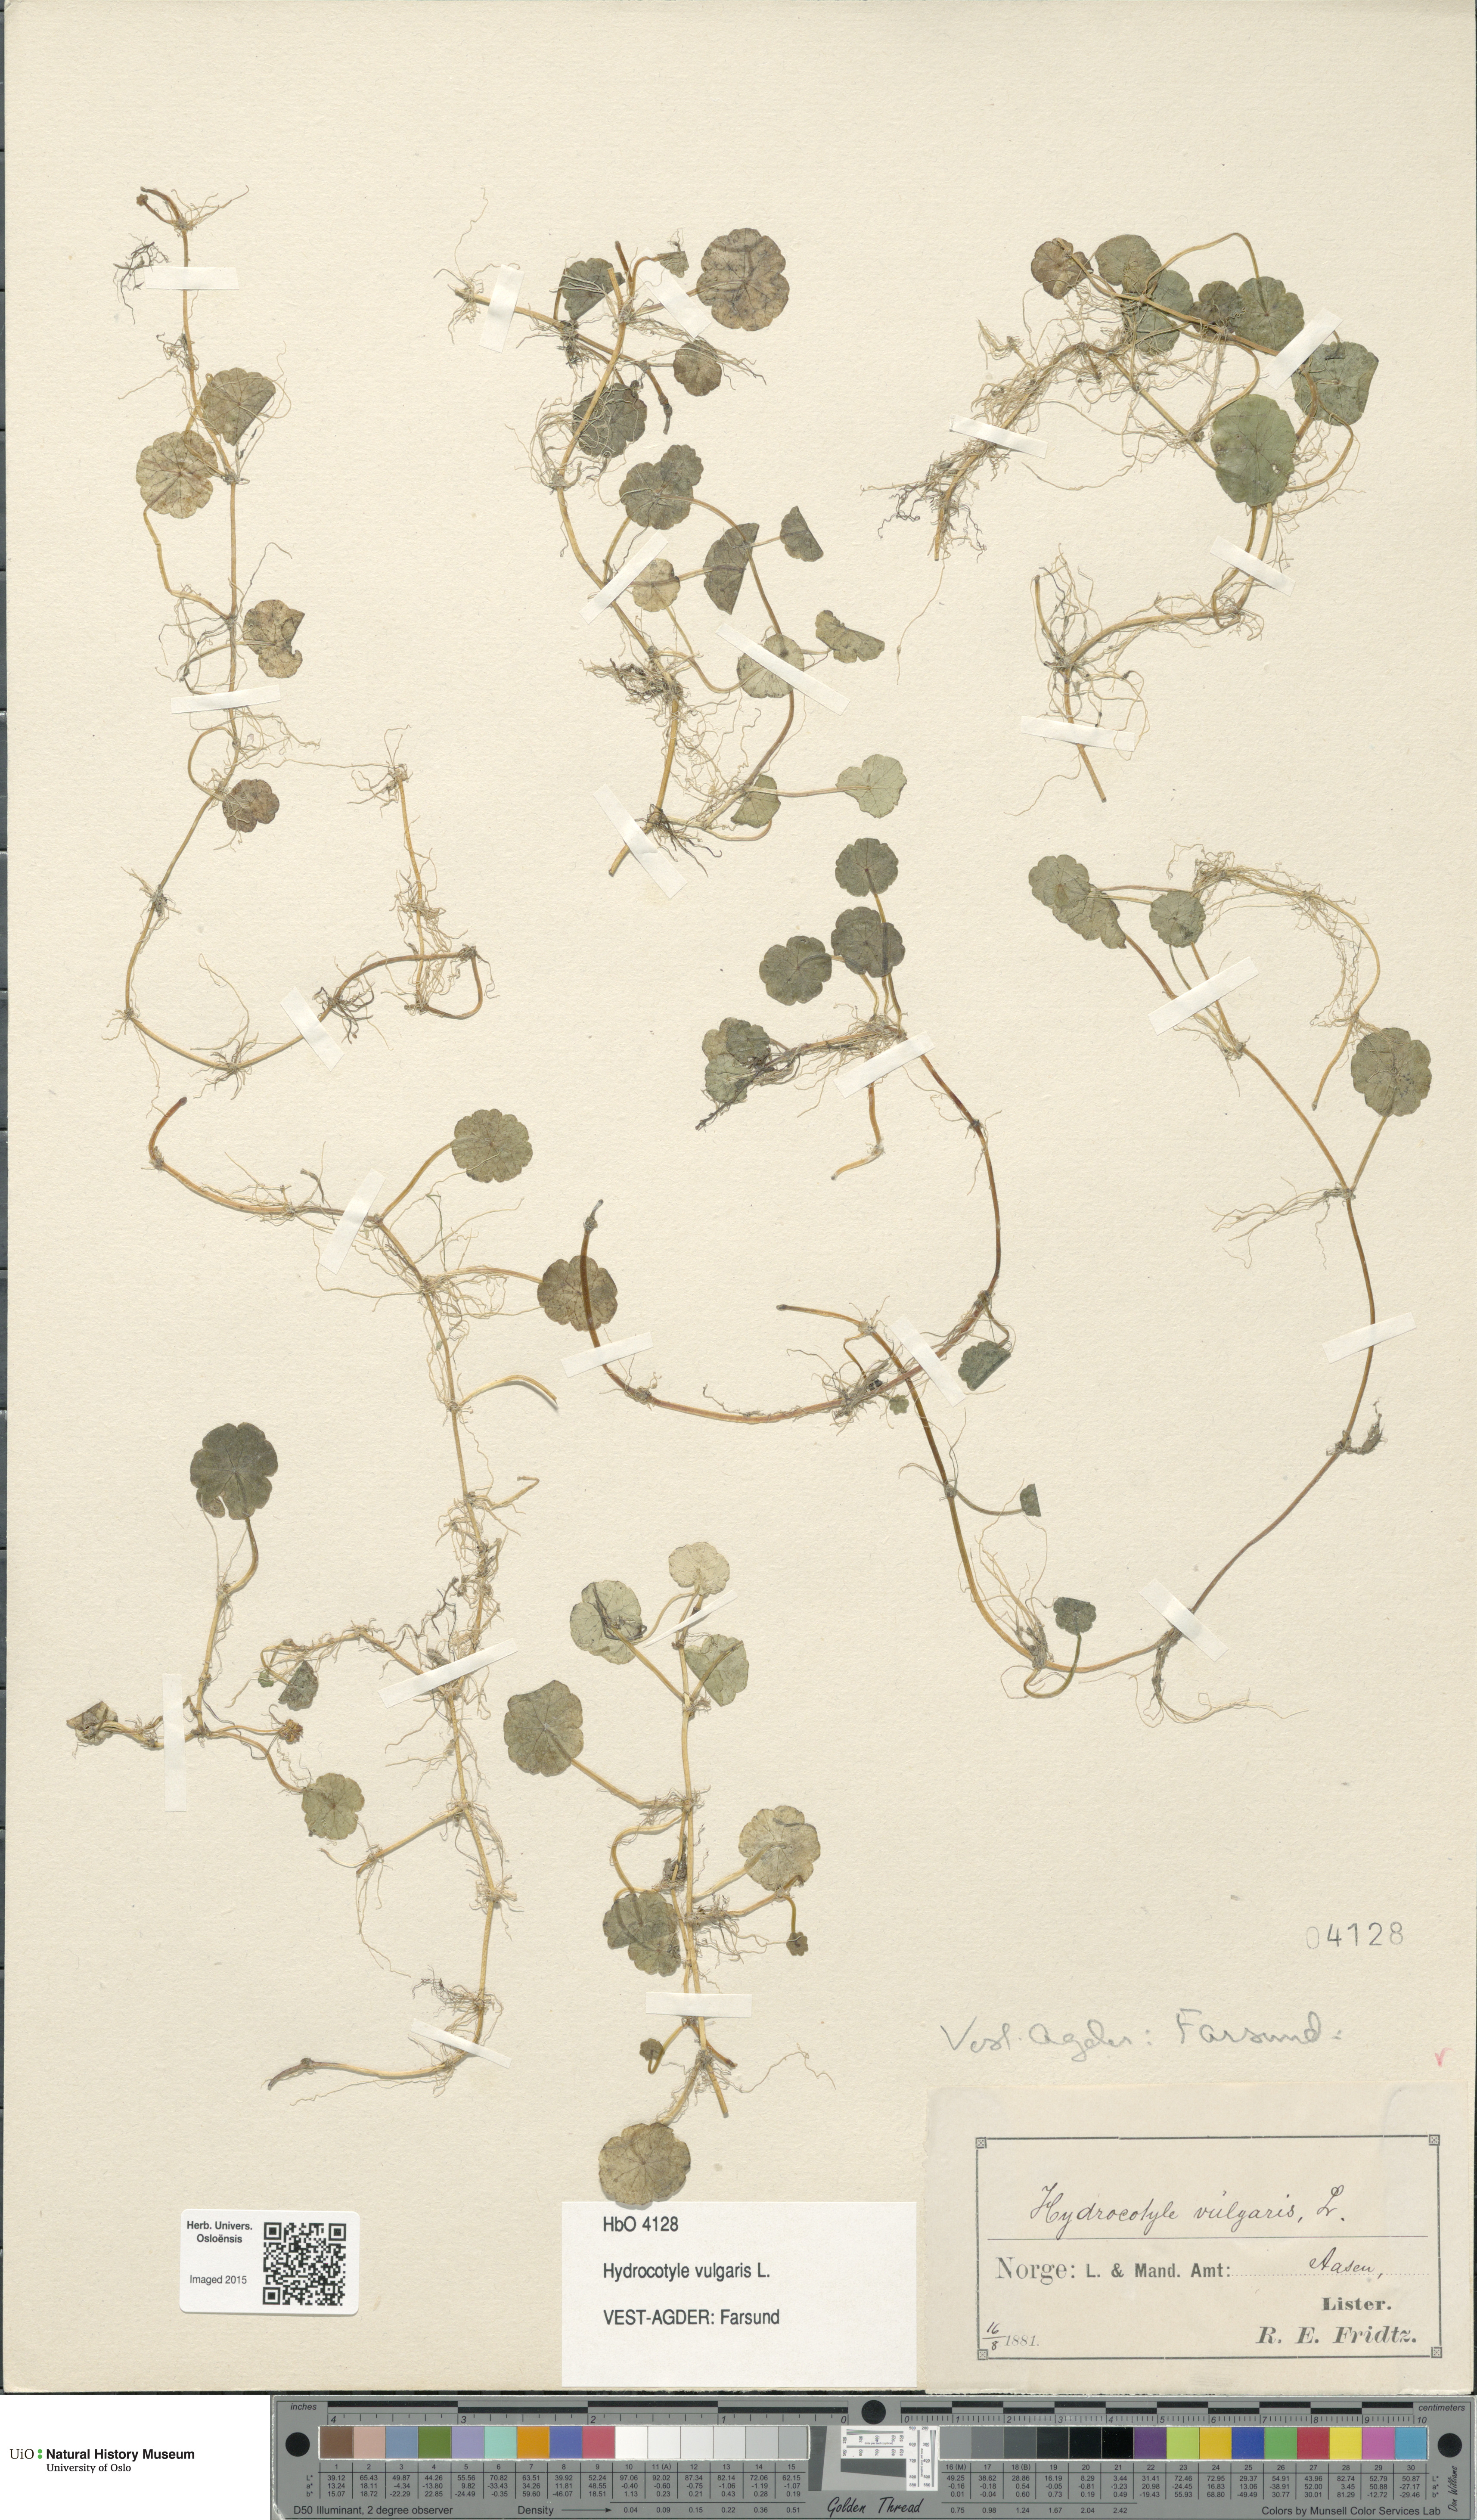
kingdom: Plantae
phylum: Tracheophyta
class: Magnoliopsida
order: Apiales
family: Araliaceae
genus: Hydrocotyle
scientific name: Hydrocotyle vulgaris
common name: Marsh pennywort
